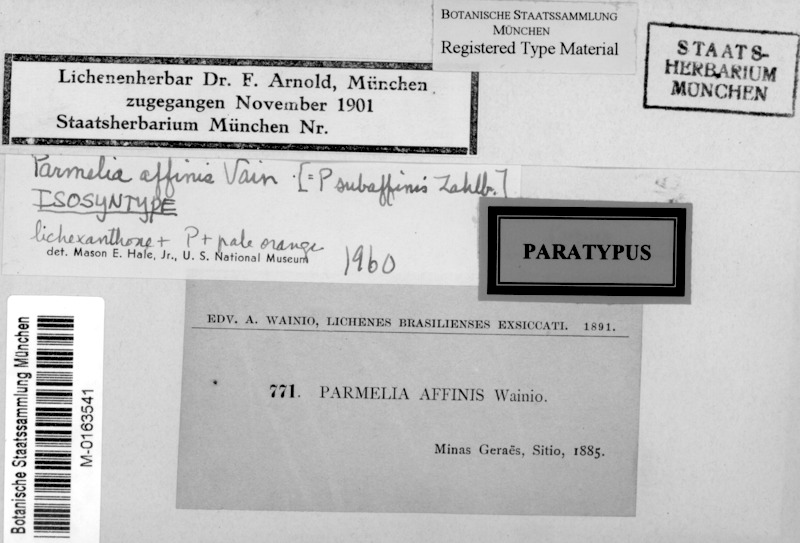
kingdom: Fungi
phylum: Ascomycota
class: Lecanoromycetes
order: Lecanorales
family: Parmeliaceae
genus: Hypotrachyna
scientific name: Hypotrachyna
